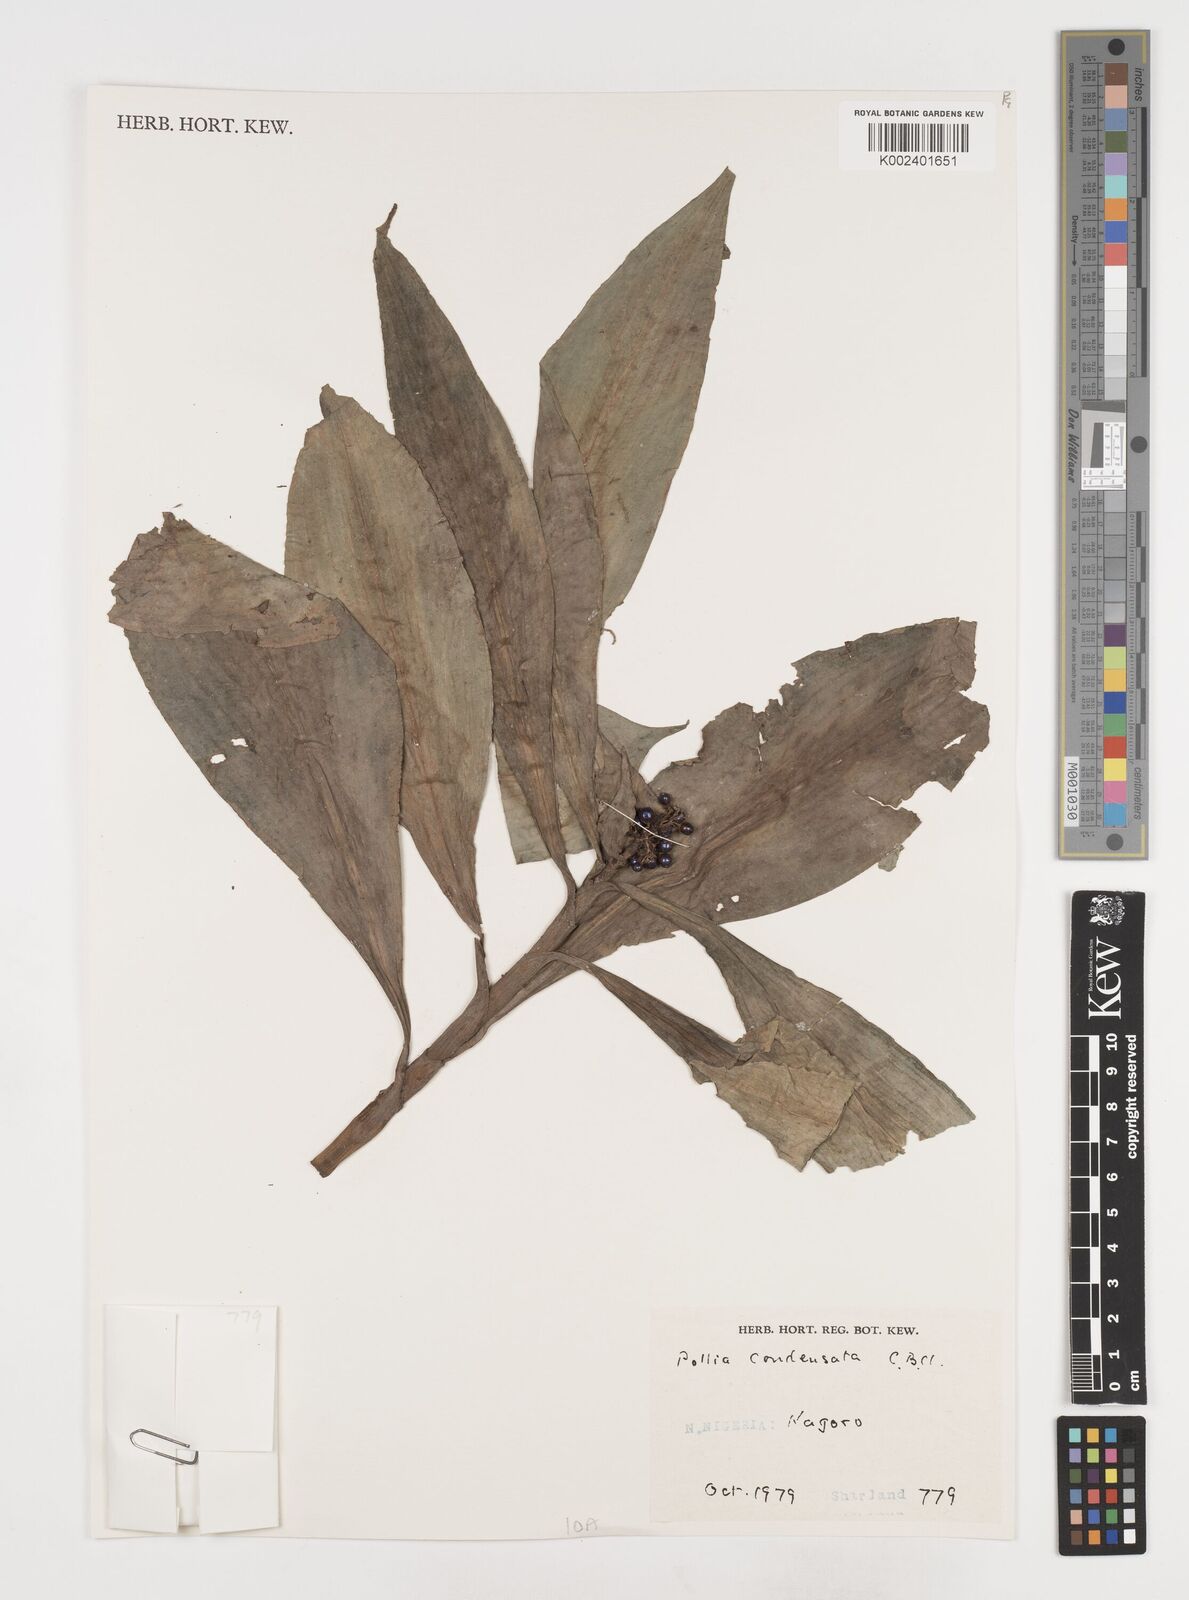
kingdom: Plantae
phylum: Tracheophyta
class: Liliopsida
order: Commelinales
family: Commelinaceae
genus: Pollia
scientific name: Pollia condensata
